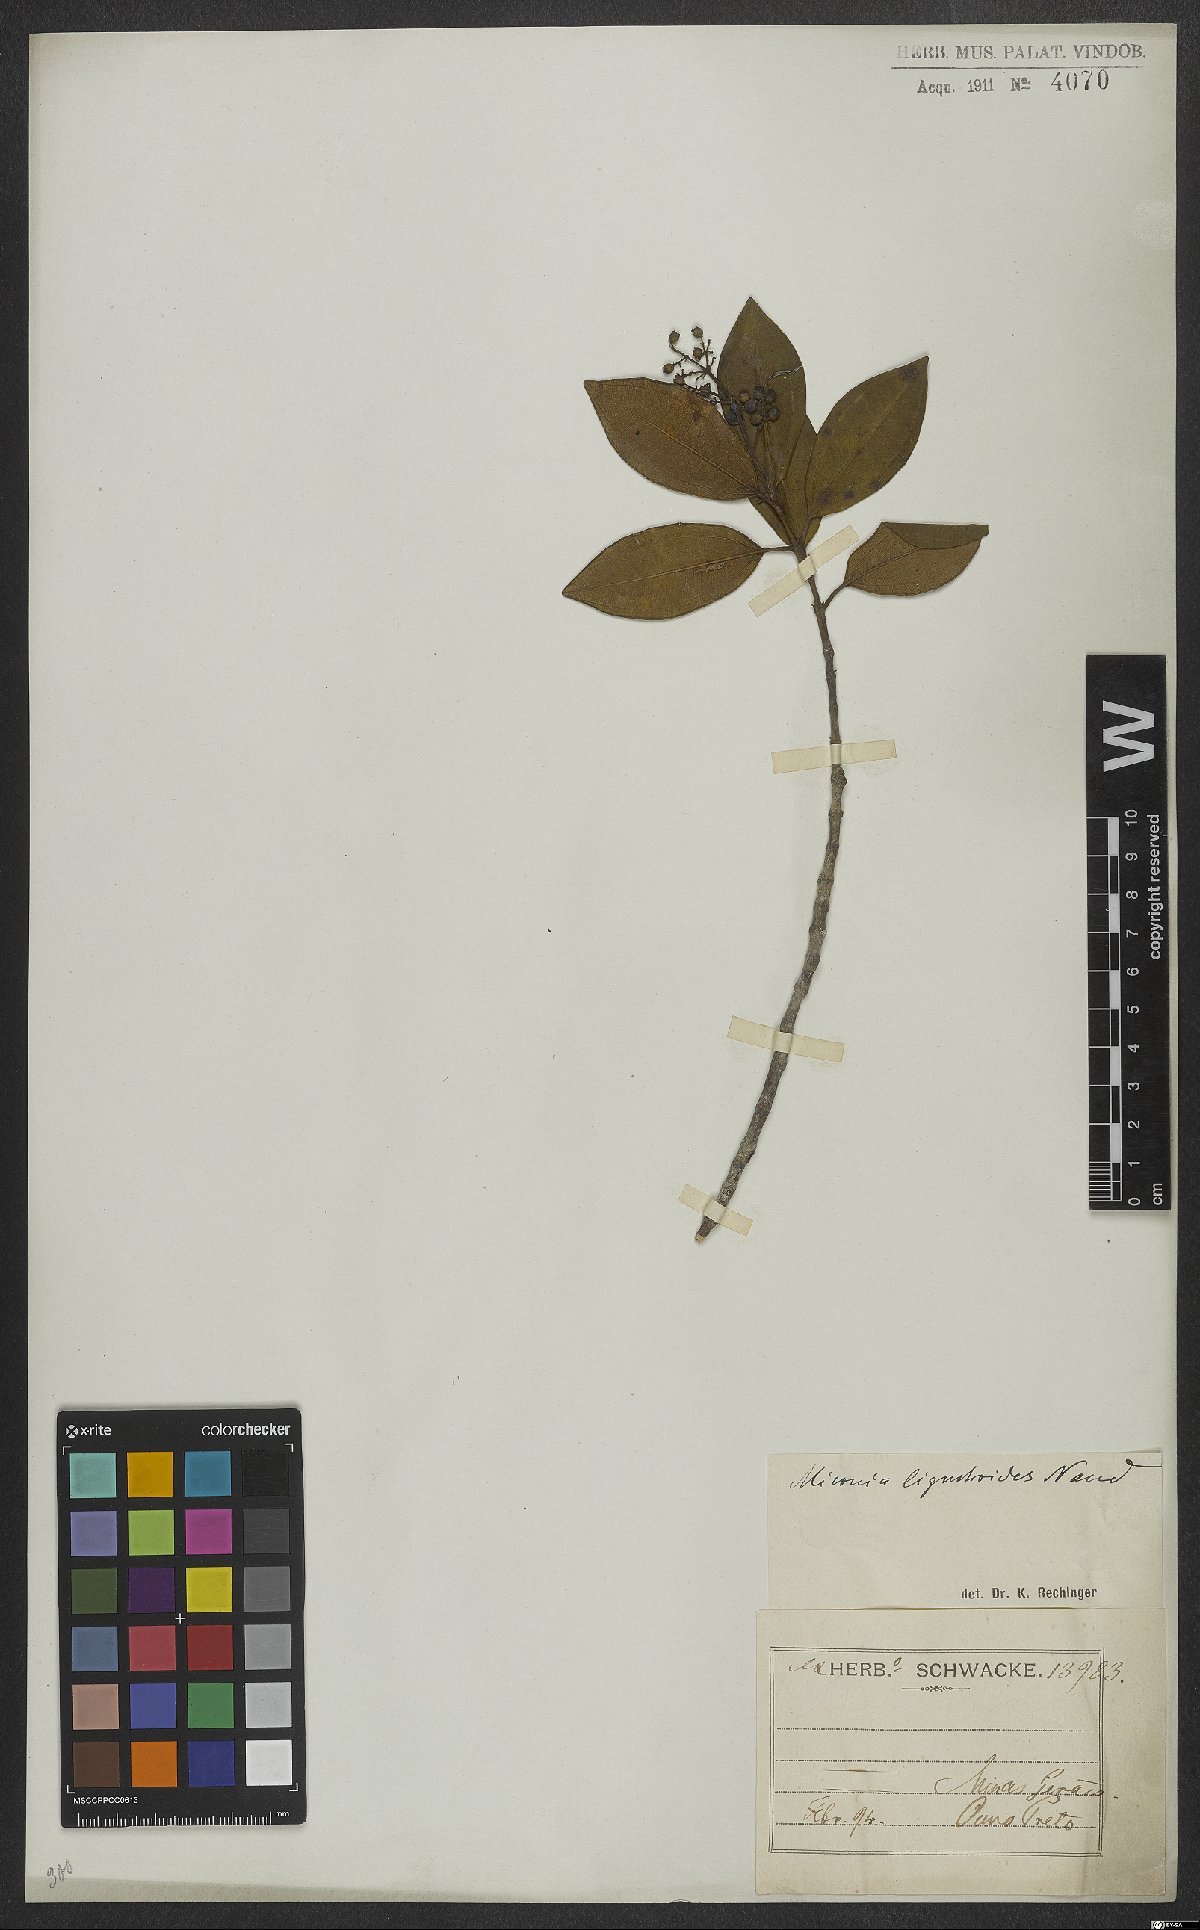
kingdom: Plantae
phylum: Tracheophyta
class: Magnoliopsida
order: Myrtales
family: Melastomataceae
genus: Miconia
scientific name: Miconia ligustroides
